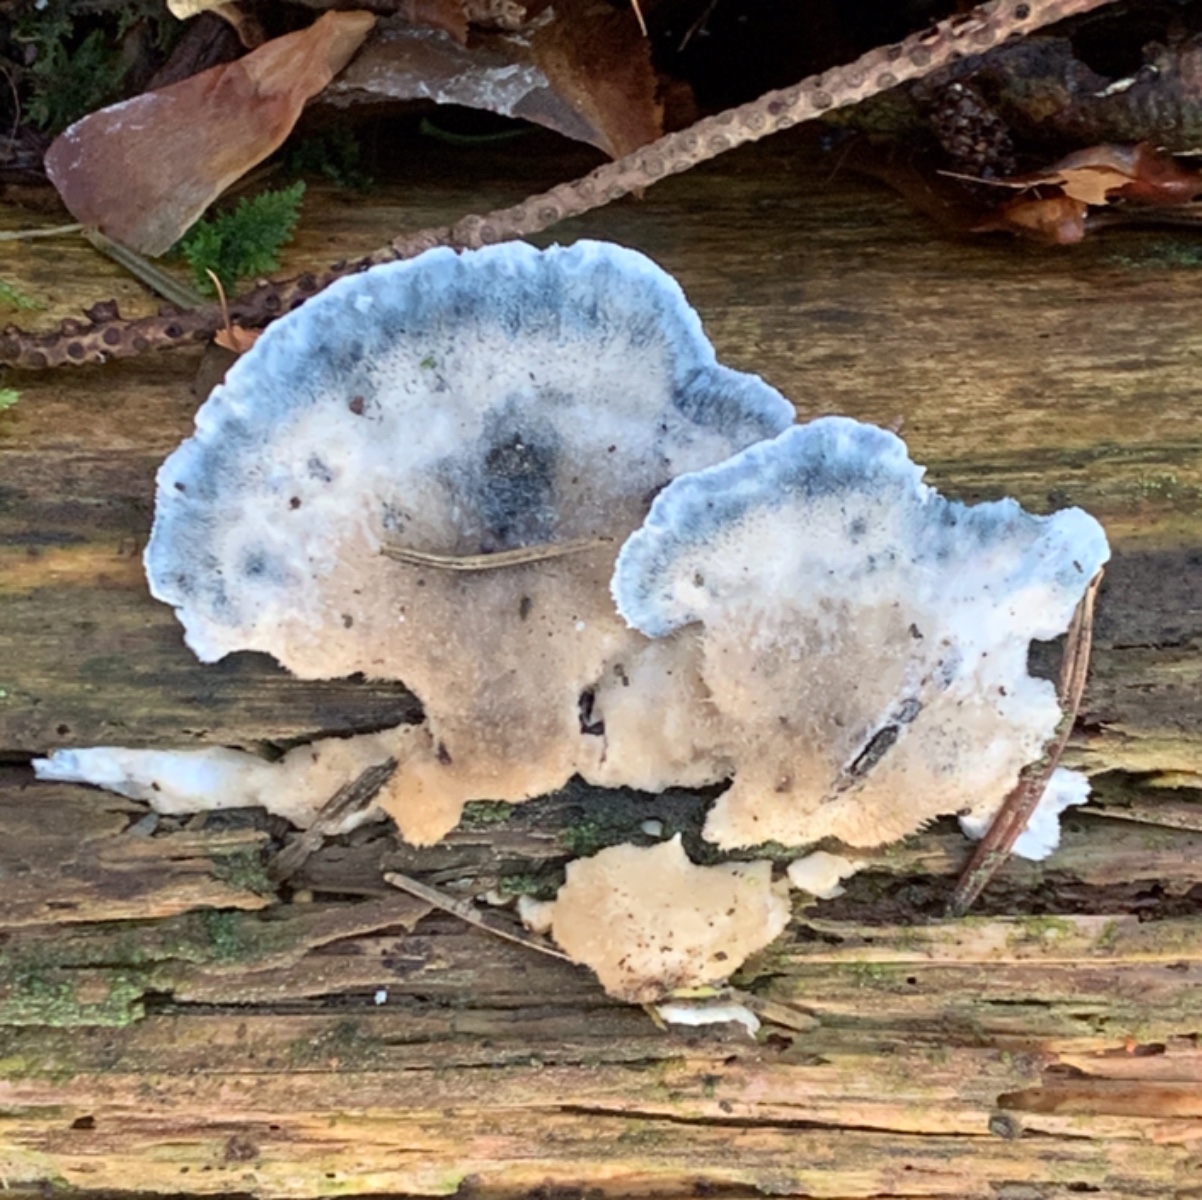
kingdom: Fungi
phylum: Basidiomycota
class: Agaricomycetes
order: Polyporales
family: Polyporaceae
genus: Cyanosporus
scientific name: Cyanosporus caesius
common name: blålig kødporesvamp
